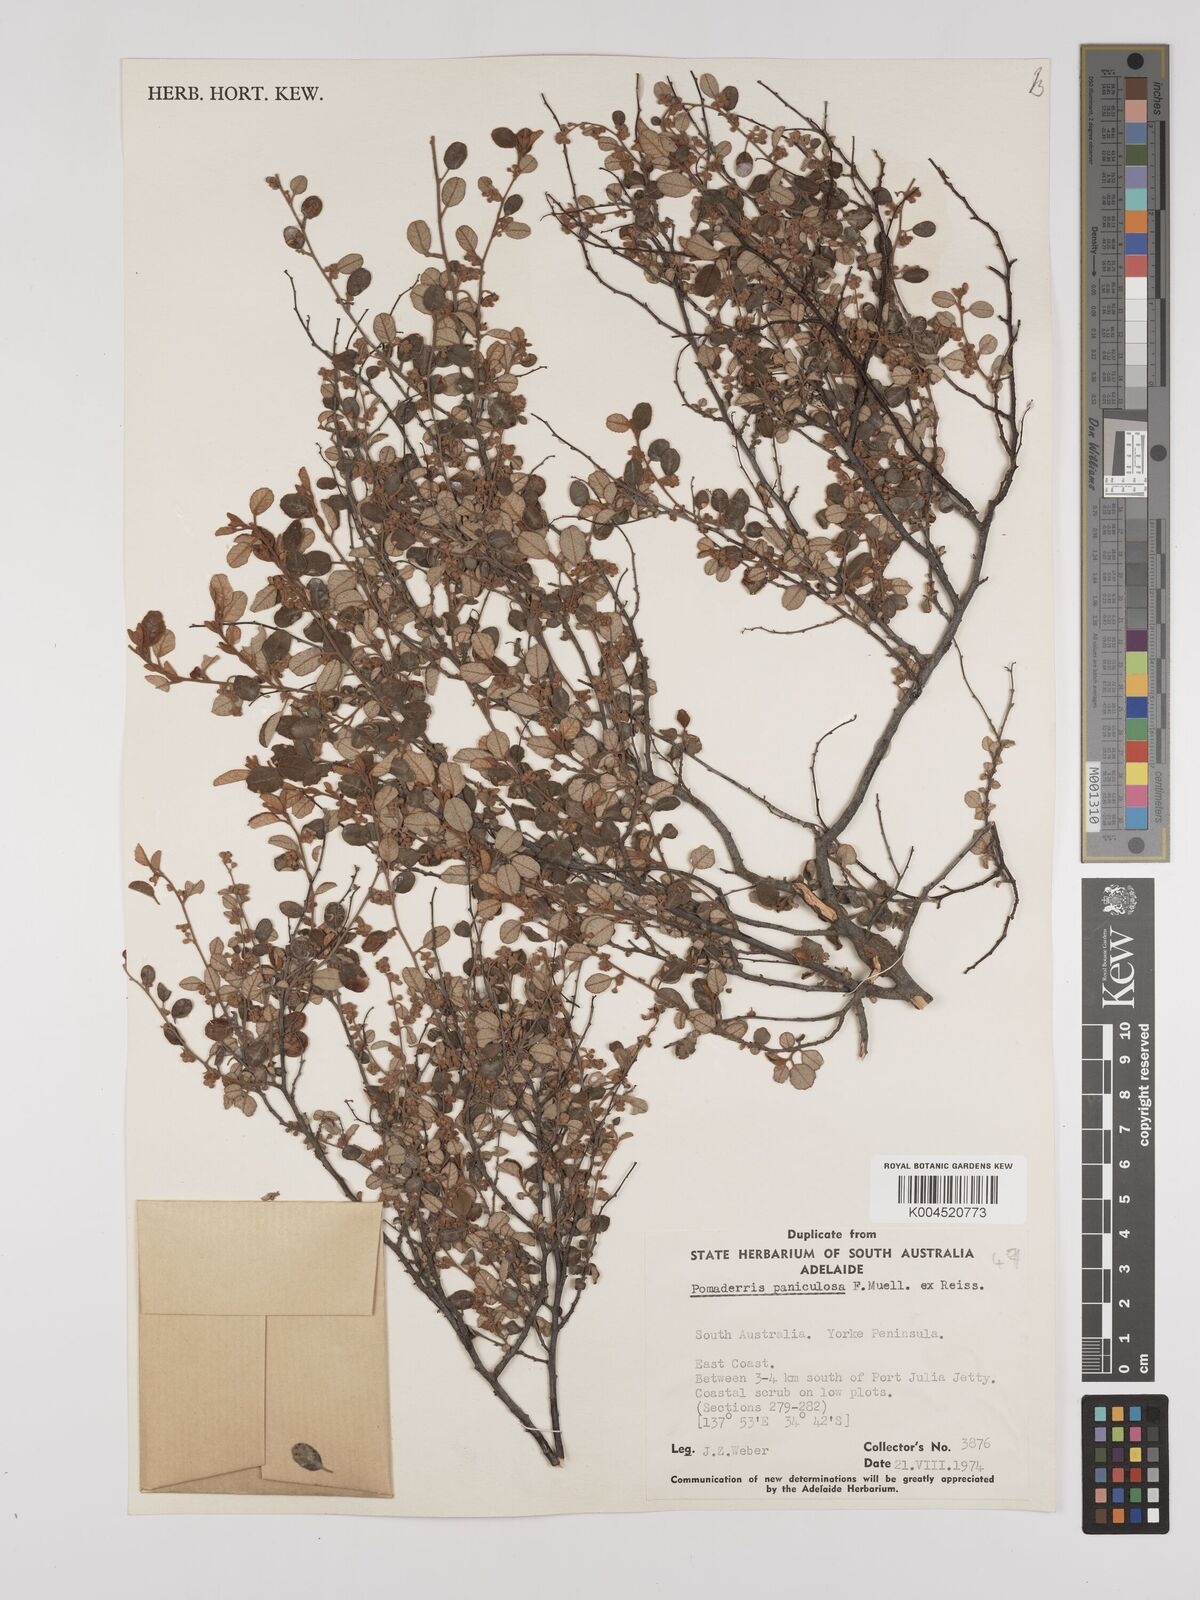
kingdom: Plantae
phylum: Tracheophyta
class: Magnoliopsida
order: Rosales
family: Rhamnaceae
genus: Pomaderris
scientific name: Pomaderris paniculosa
